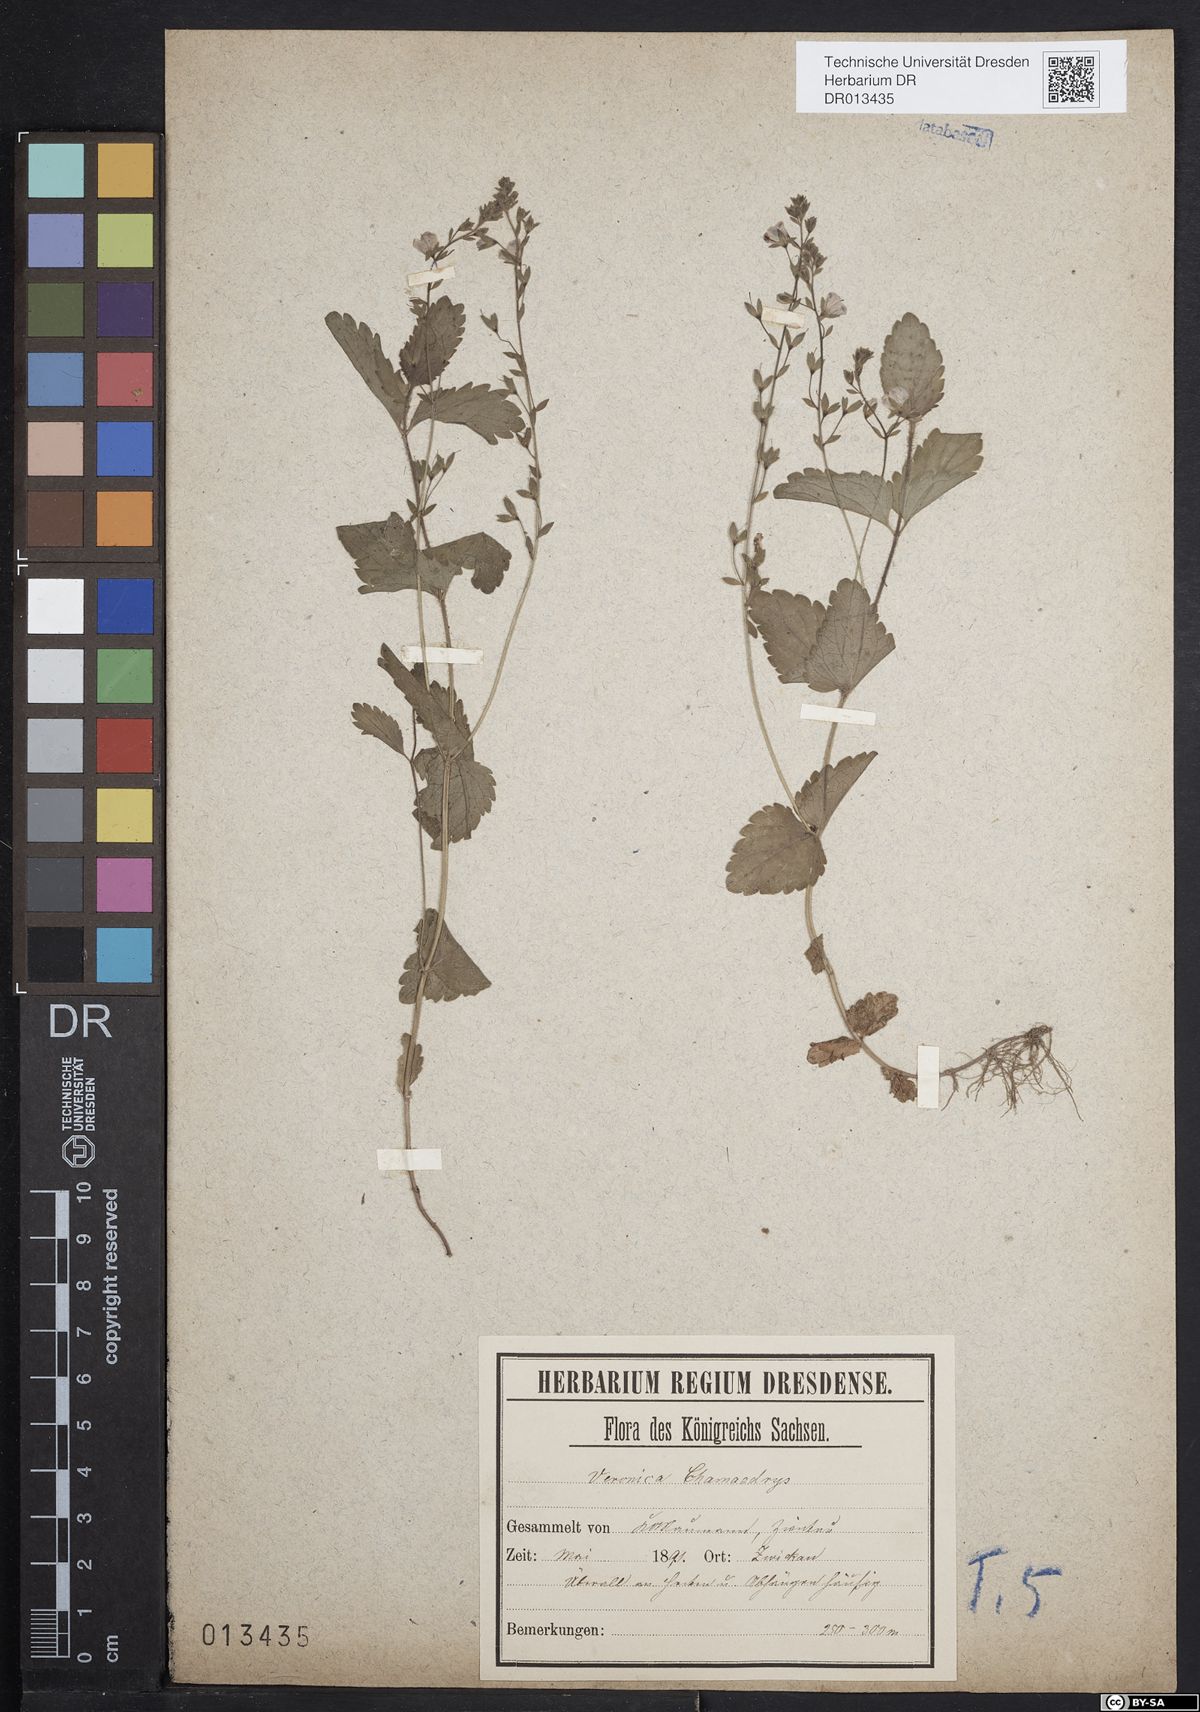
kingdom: Plantae
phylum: Tracheophyta
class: Magnoliopsida
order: Lamiales
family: Plantaginaceae
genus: Veronica
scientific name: Veronica chamaedrys
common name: Germander speedwell
